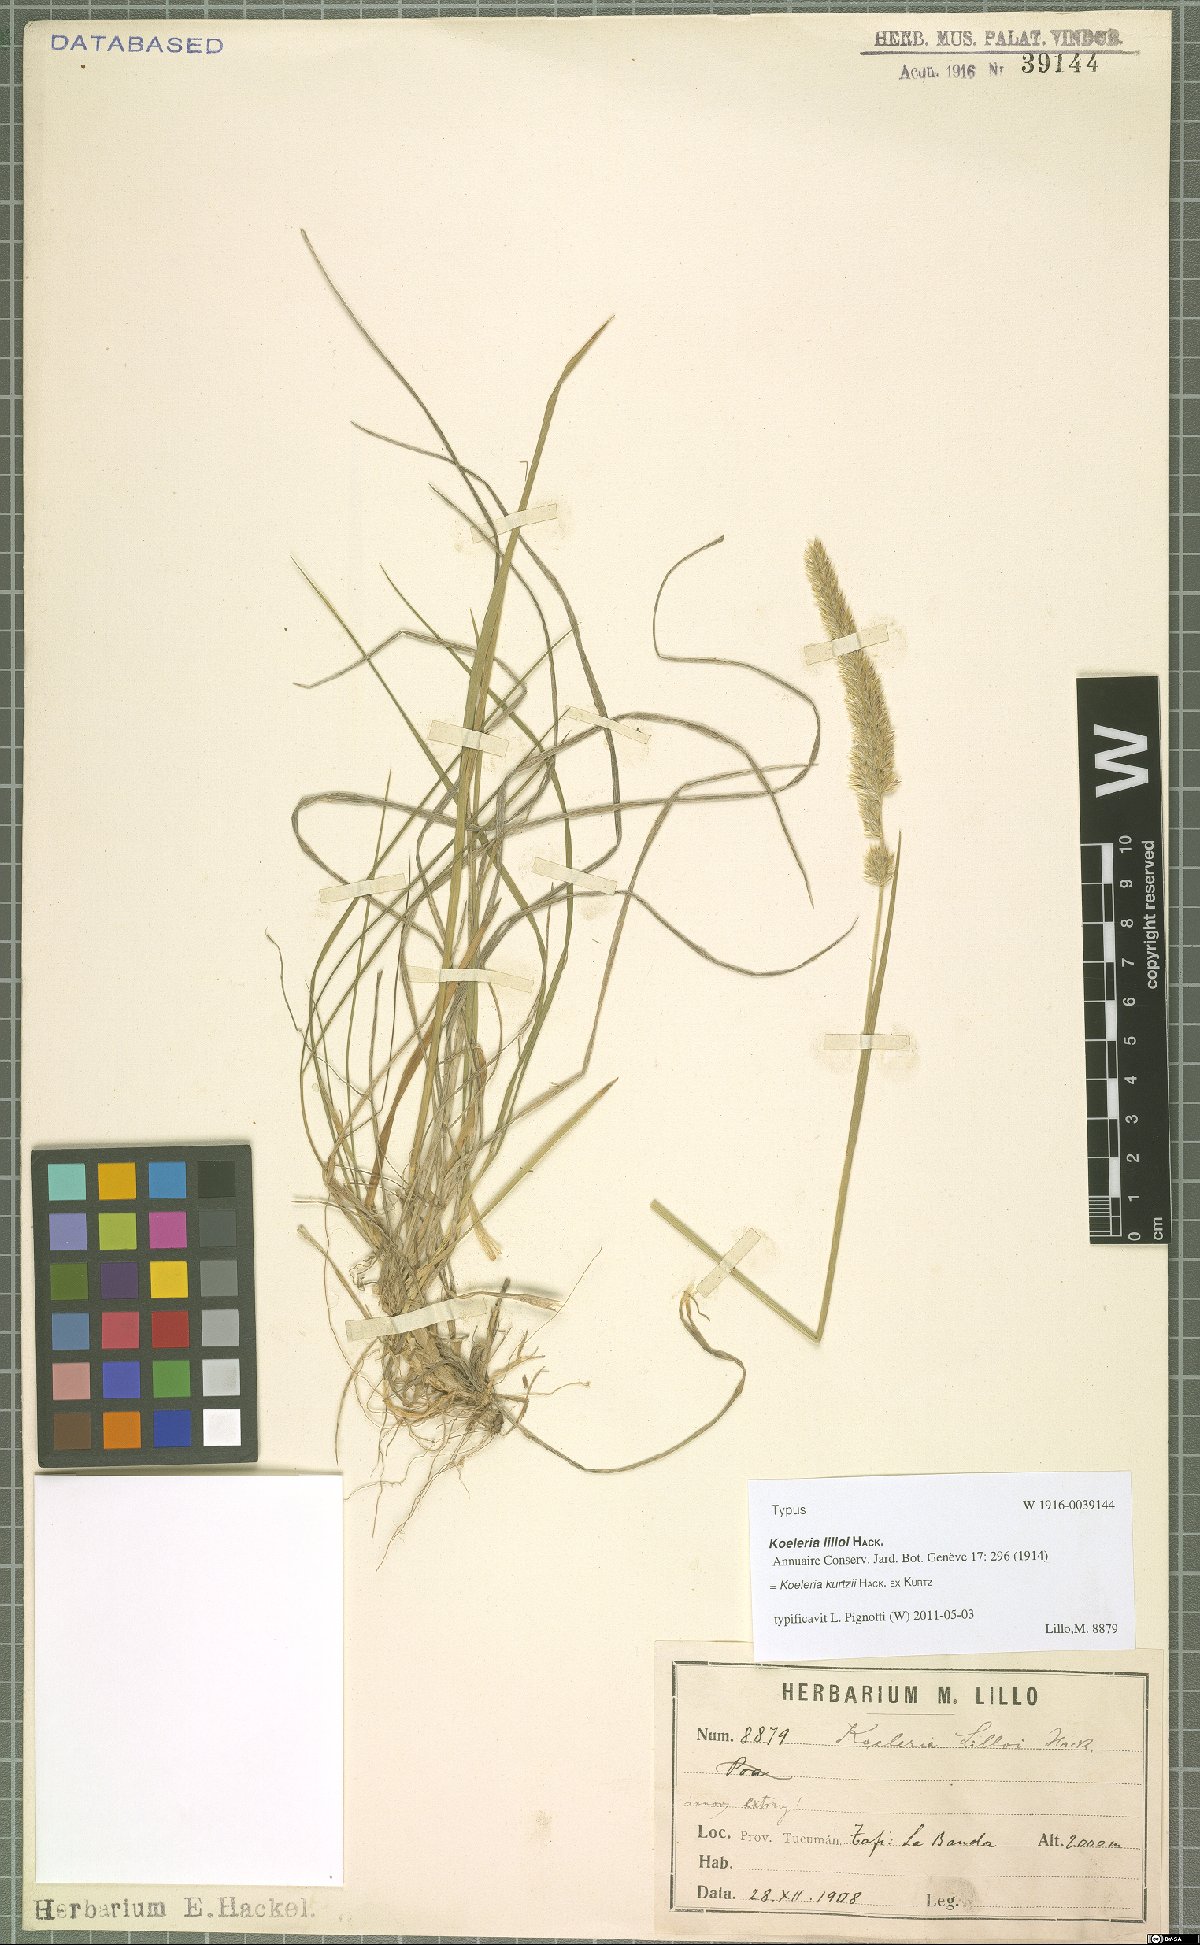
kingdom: Plantae
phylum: Tracheophyta
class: Liliopsida
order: Poales
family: Poaceae
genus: Koeleria
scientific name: Koeleria kurtzii
